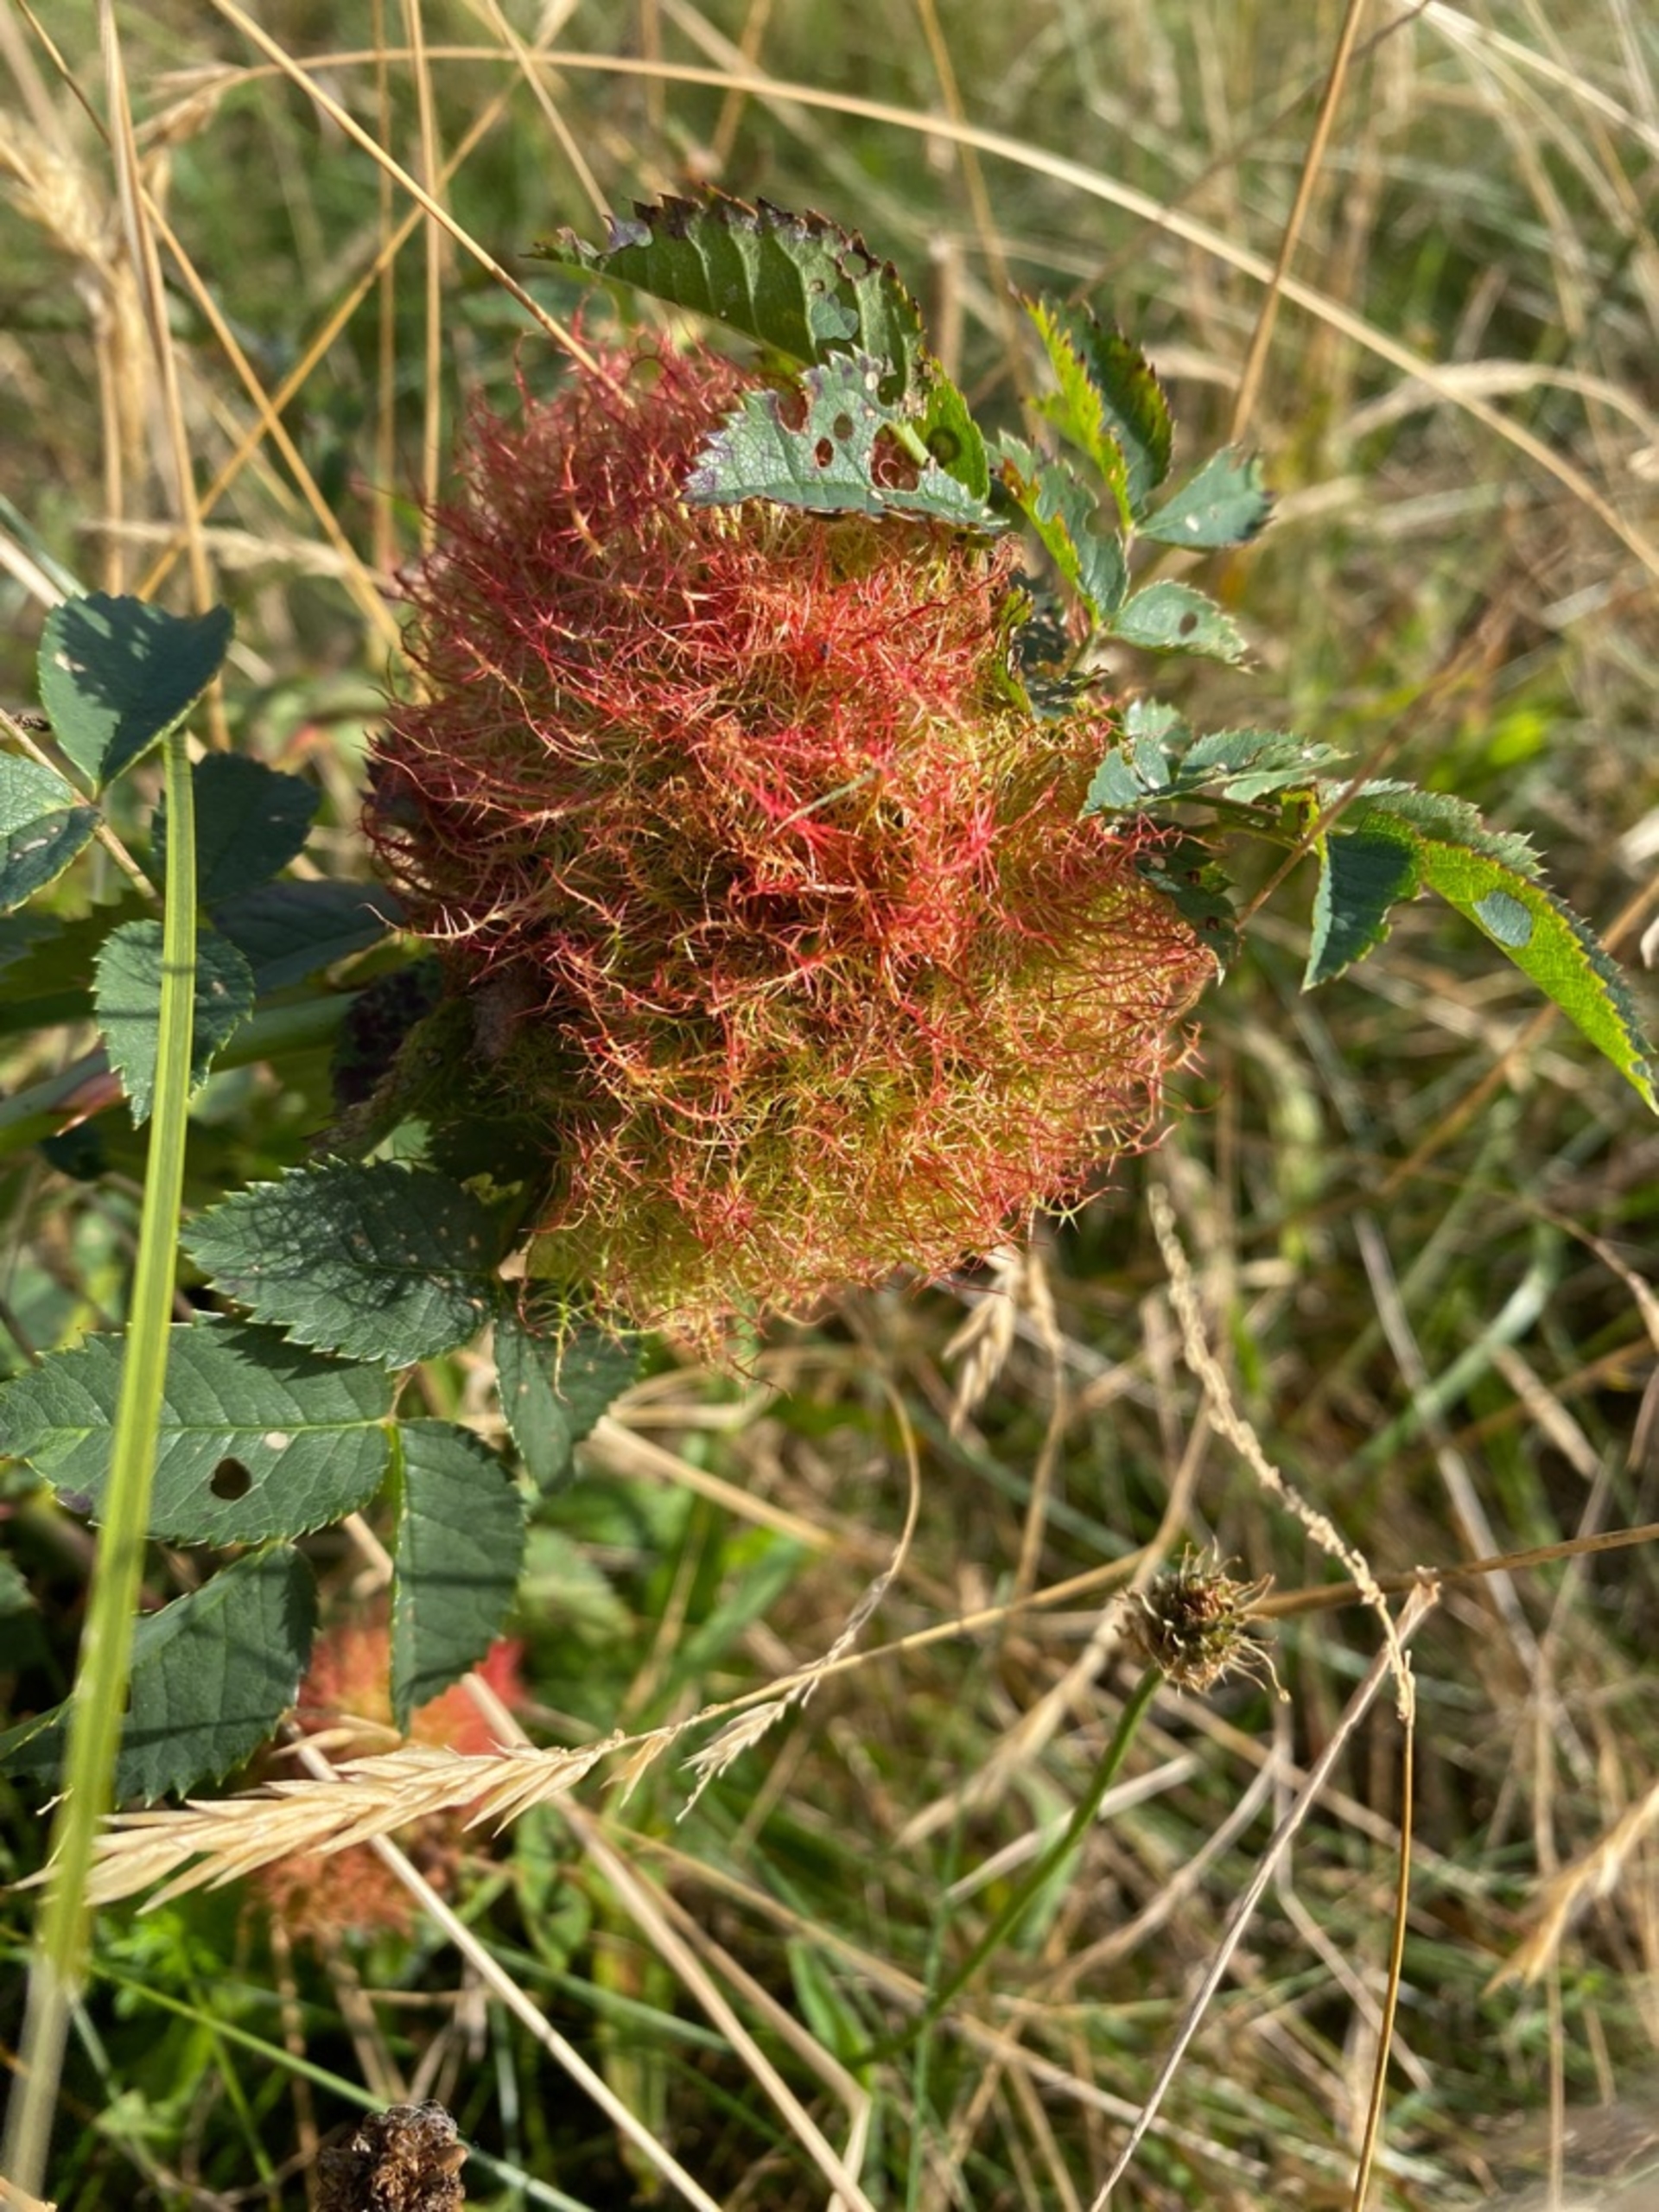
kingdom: Animalia
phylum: Arthropoda
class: Insecta
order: Hymenoptera
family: Cynipidae
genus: Diplolepis
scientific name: Diplolepis rosae
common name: Bedeguargalhveps
